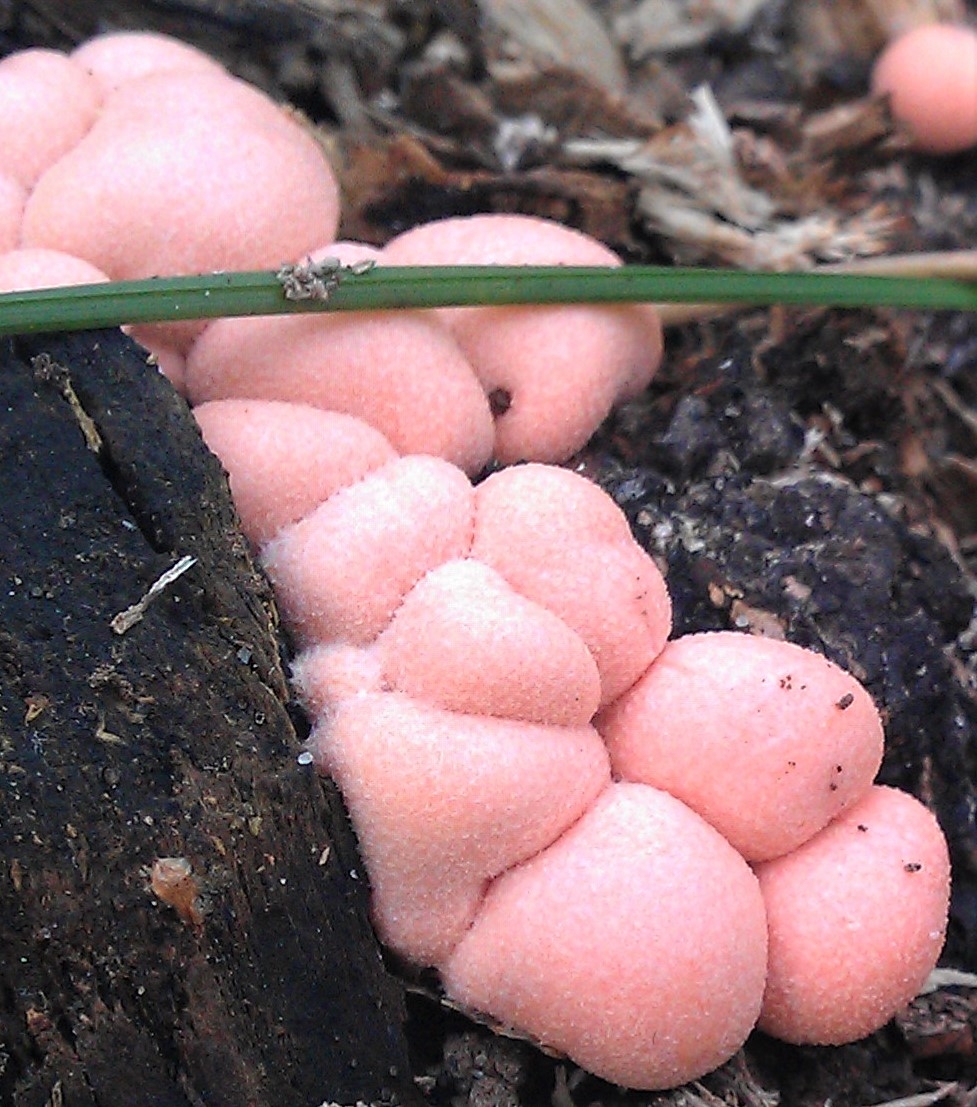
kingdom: Protozoa
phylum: Mycetozoa
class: Myxomycetes
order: Cribrariales
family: Tubiferaceae
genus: Lycogala
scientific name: Lycogala epidendrum
